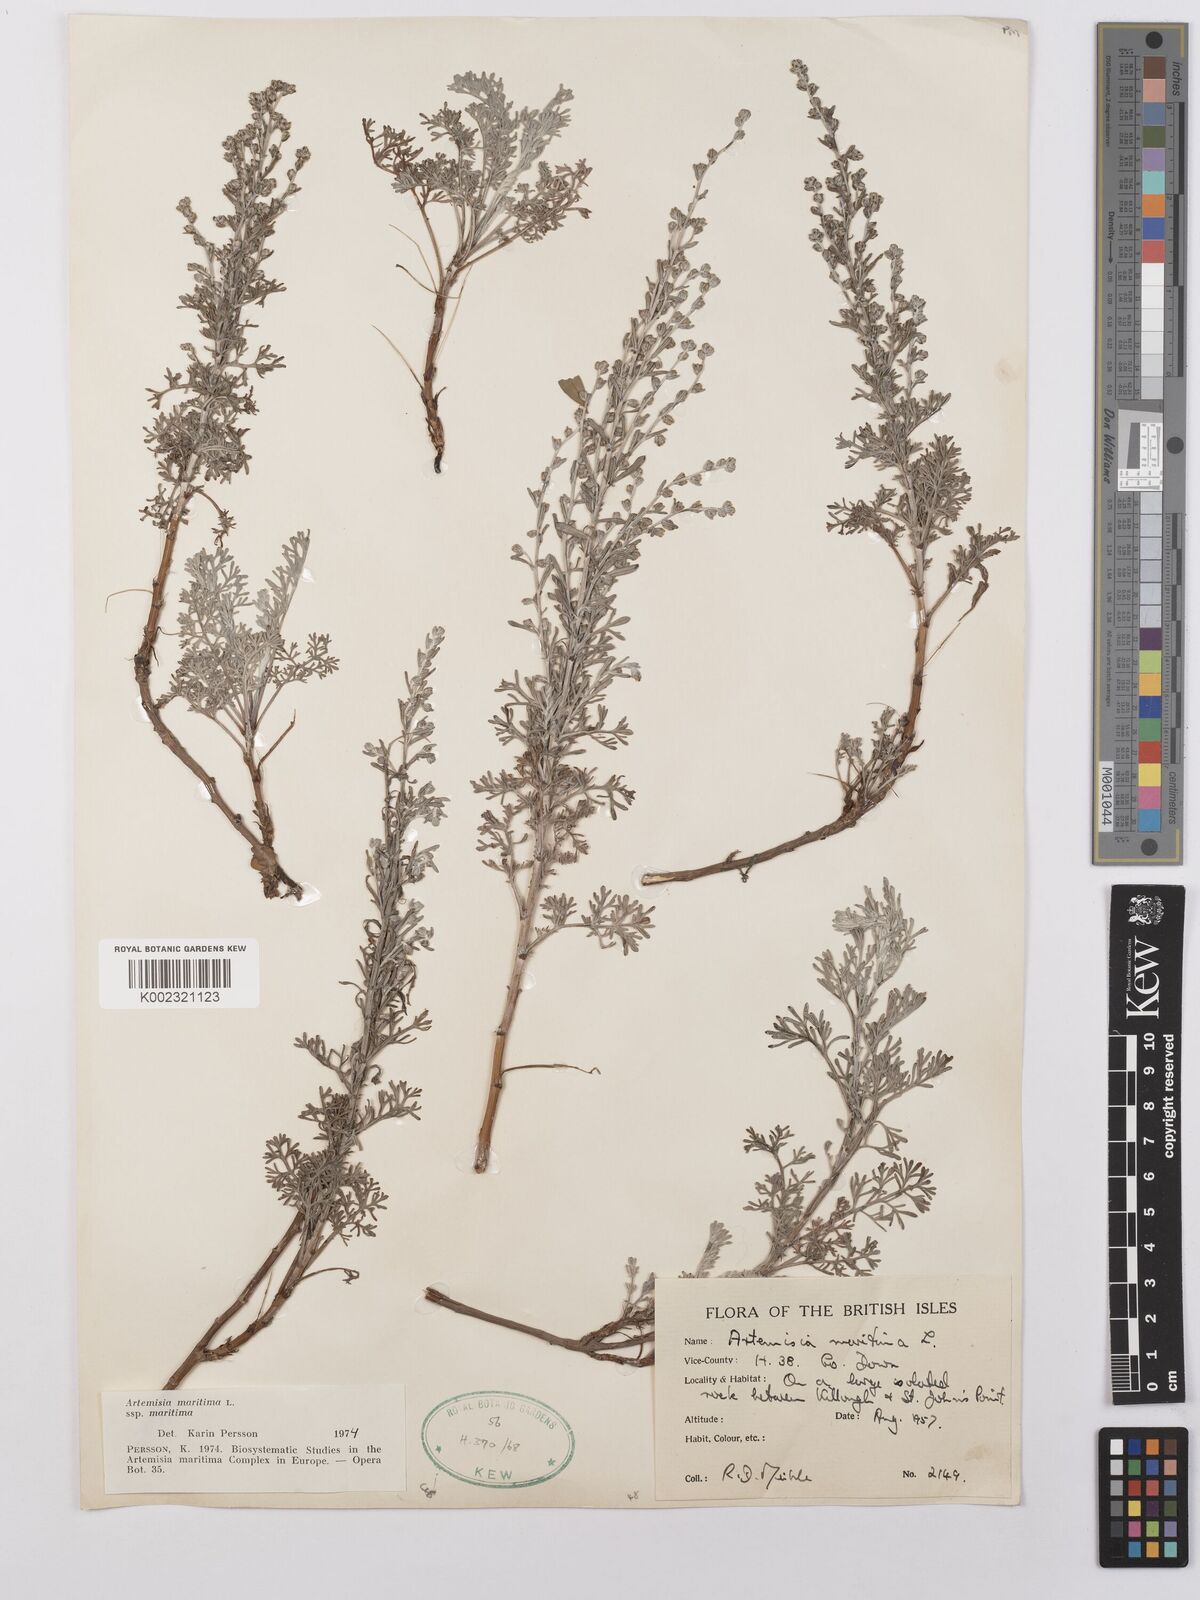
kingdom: Plantae
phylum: Tracheophyta
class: Magnoliopsida
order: Asterales
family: Asteraceae
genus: Artemisia
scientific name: Artemisia maritima
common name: Wormseed
